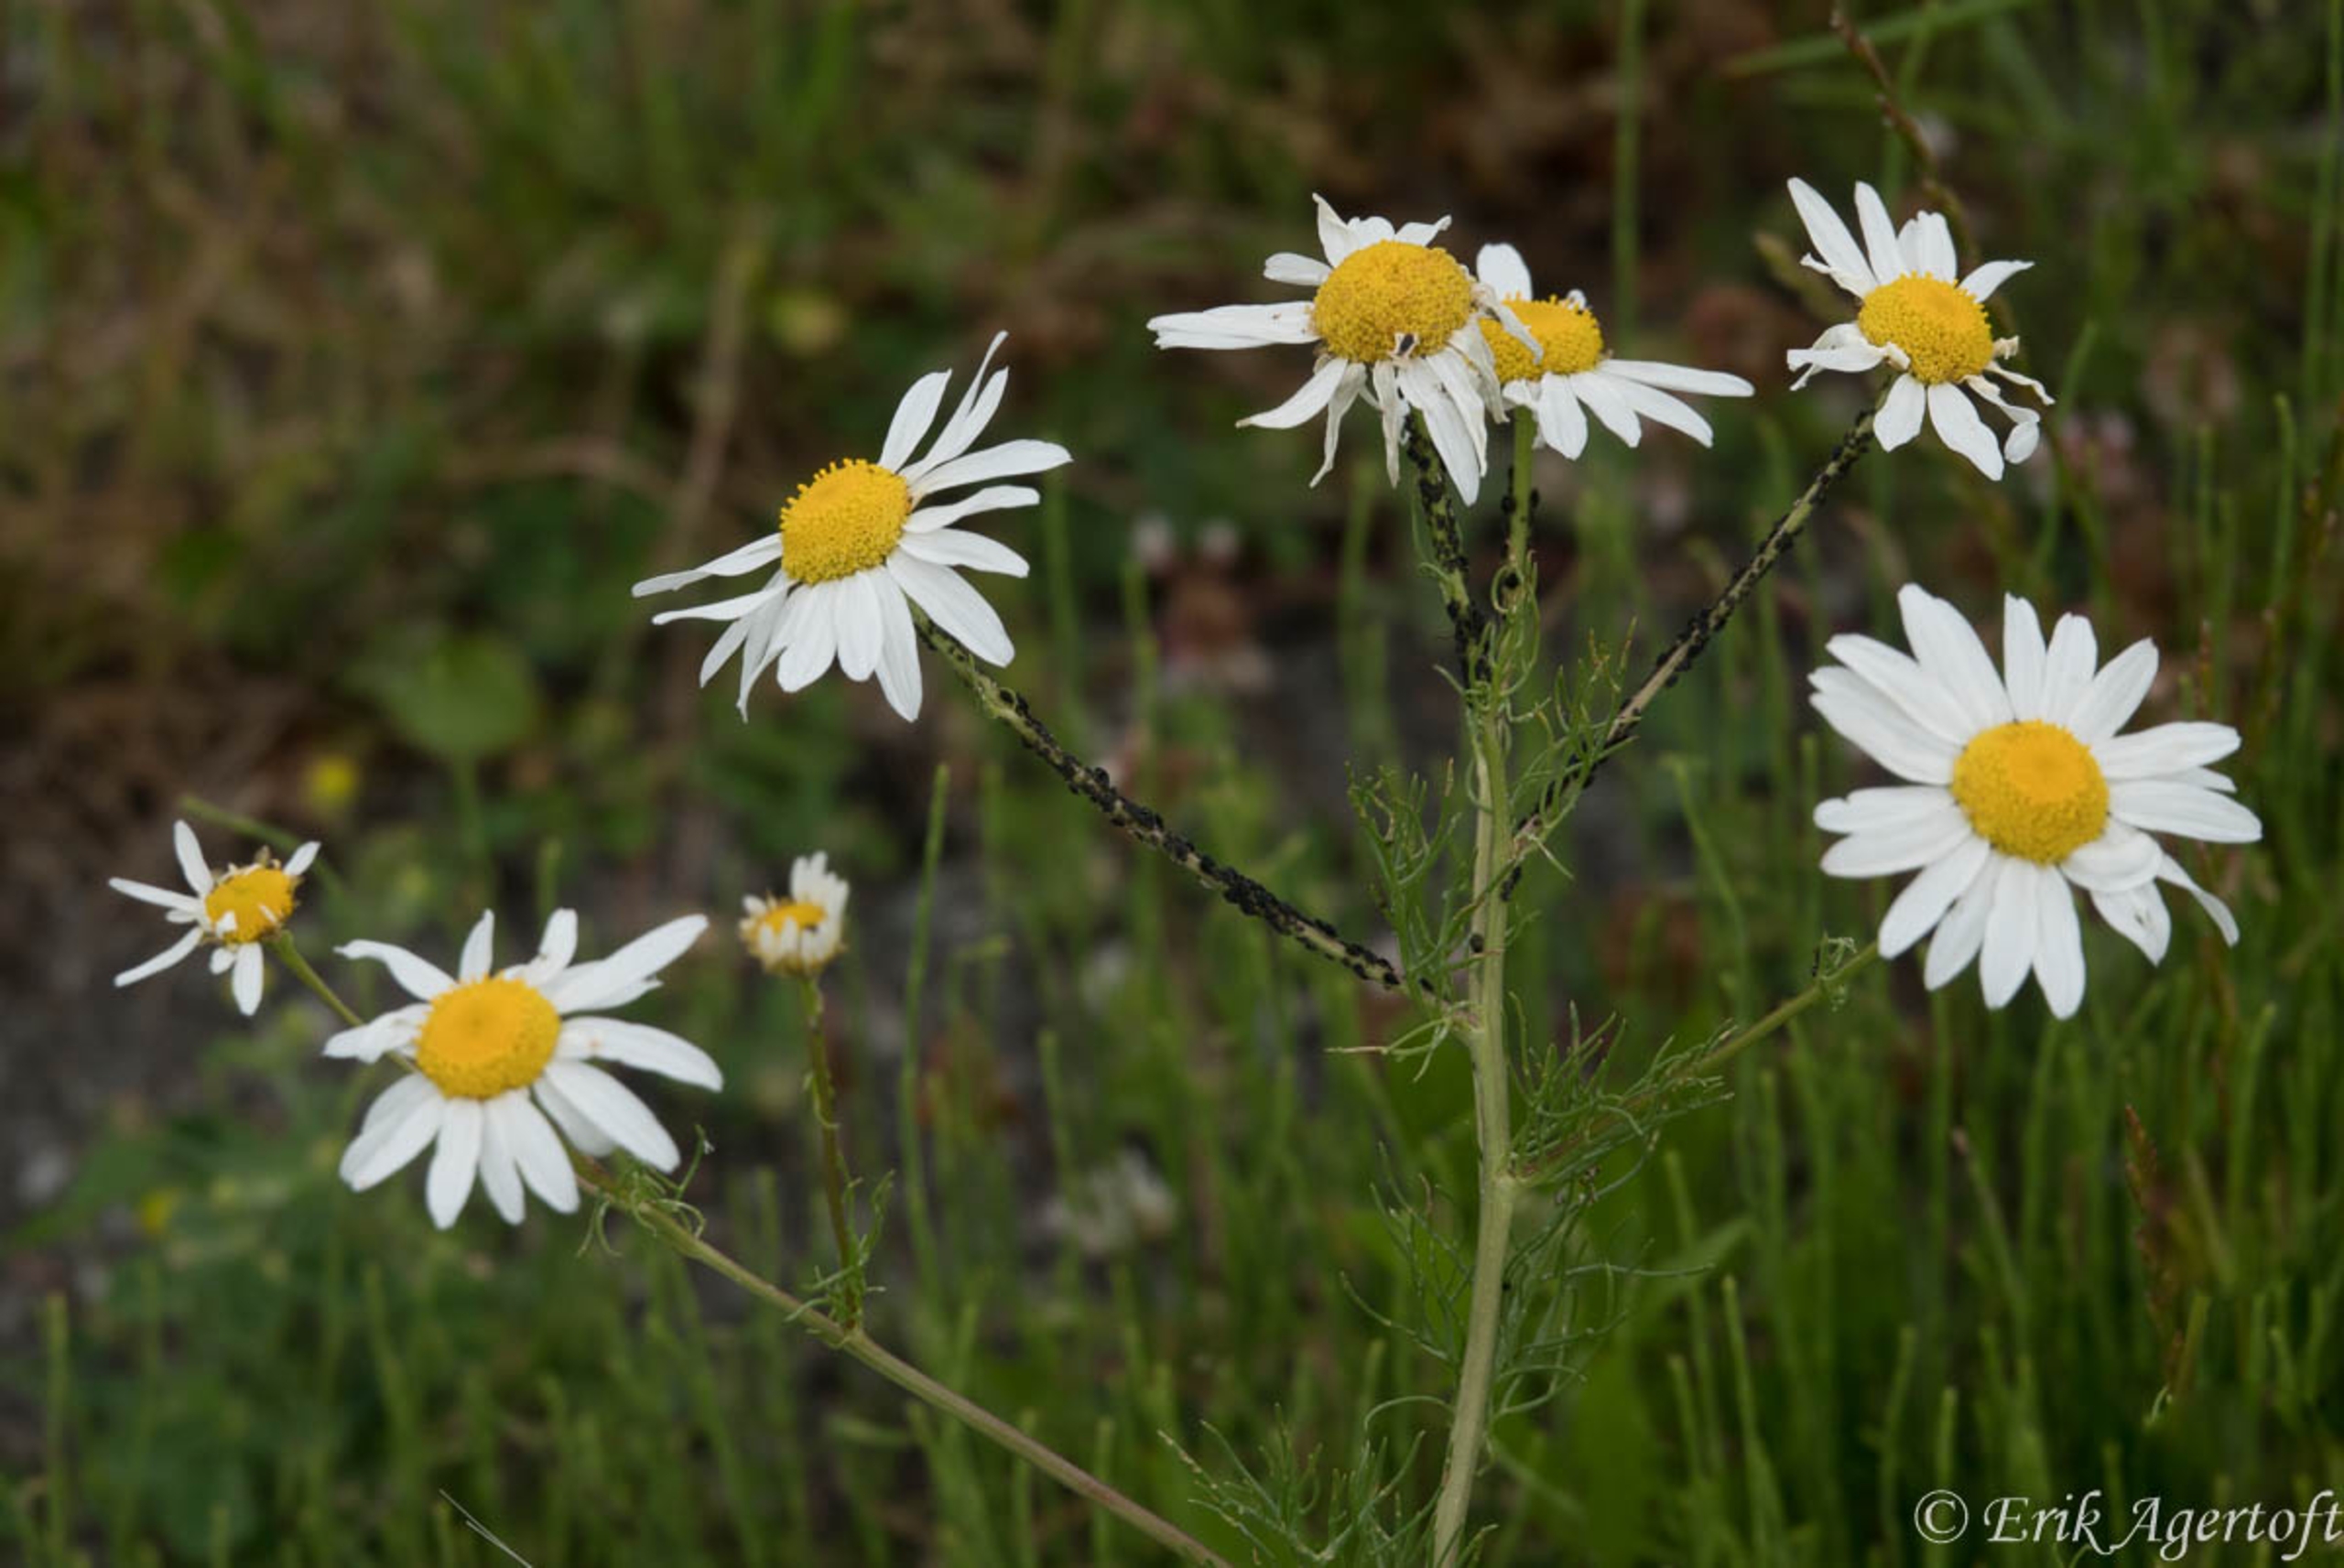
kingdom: Plantae
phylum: Tracheophyta
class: Magnoliopsida
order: Asterales
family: Asteraceae
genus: Tripleurospermum
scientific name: Tripleurospermum inodorum
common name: Lugtløs kamille
